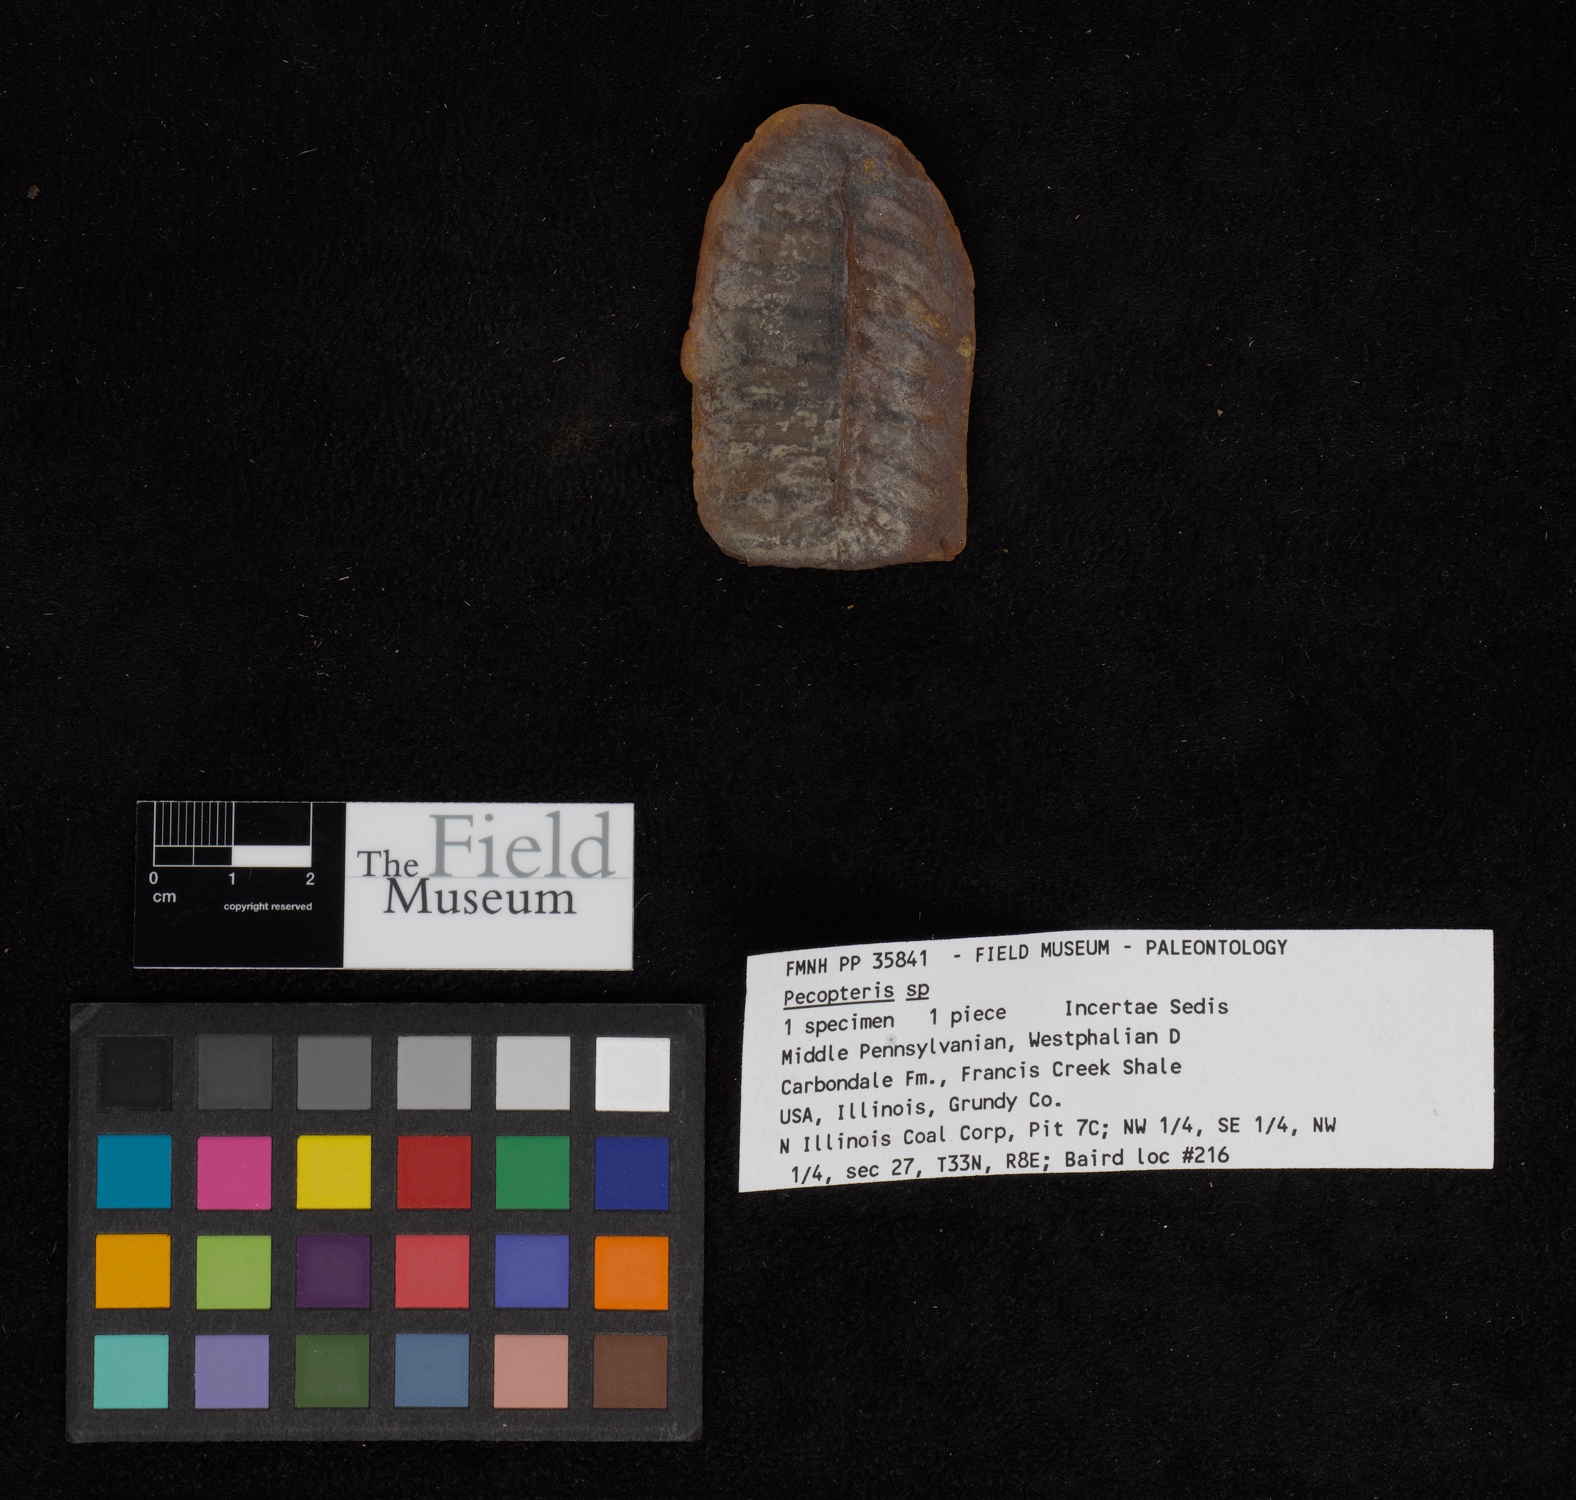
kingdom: Plantae
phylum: Tracheophyta
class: Polypodiopsida
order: Marattiales
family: Asterothecaceae
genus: Pecopteris
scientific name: Pecopteris
